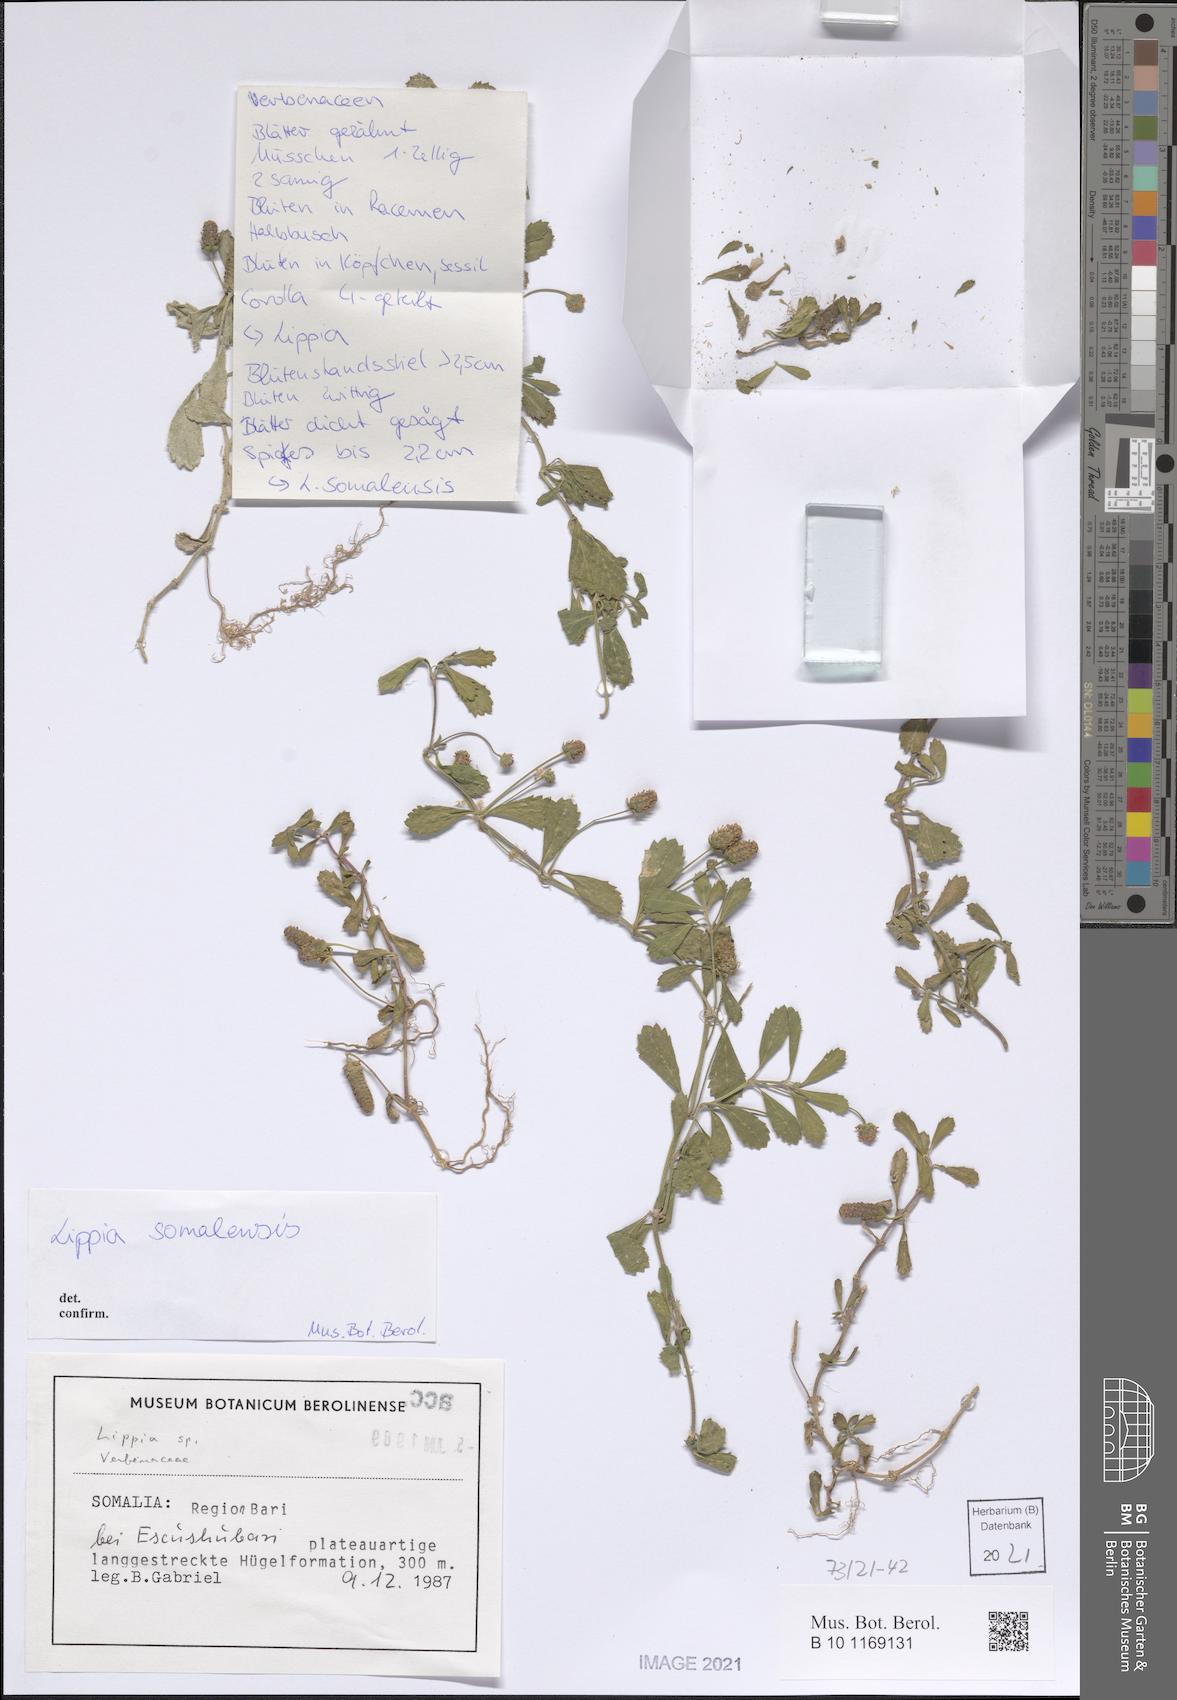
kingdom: Plantae
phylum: Tracheophyta
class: Magnoliopsida
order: Lamiales
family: Verbenaceae
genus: Lippia
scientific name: Lippia somalensis
